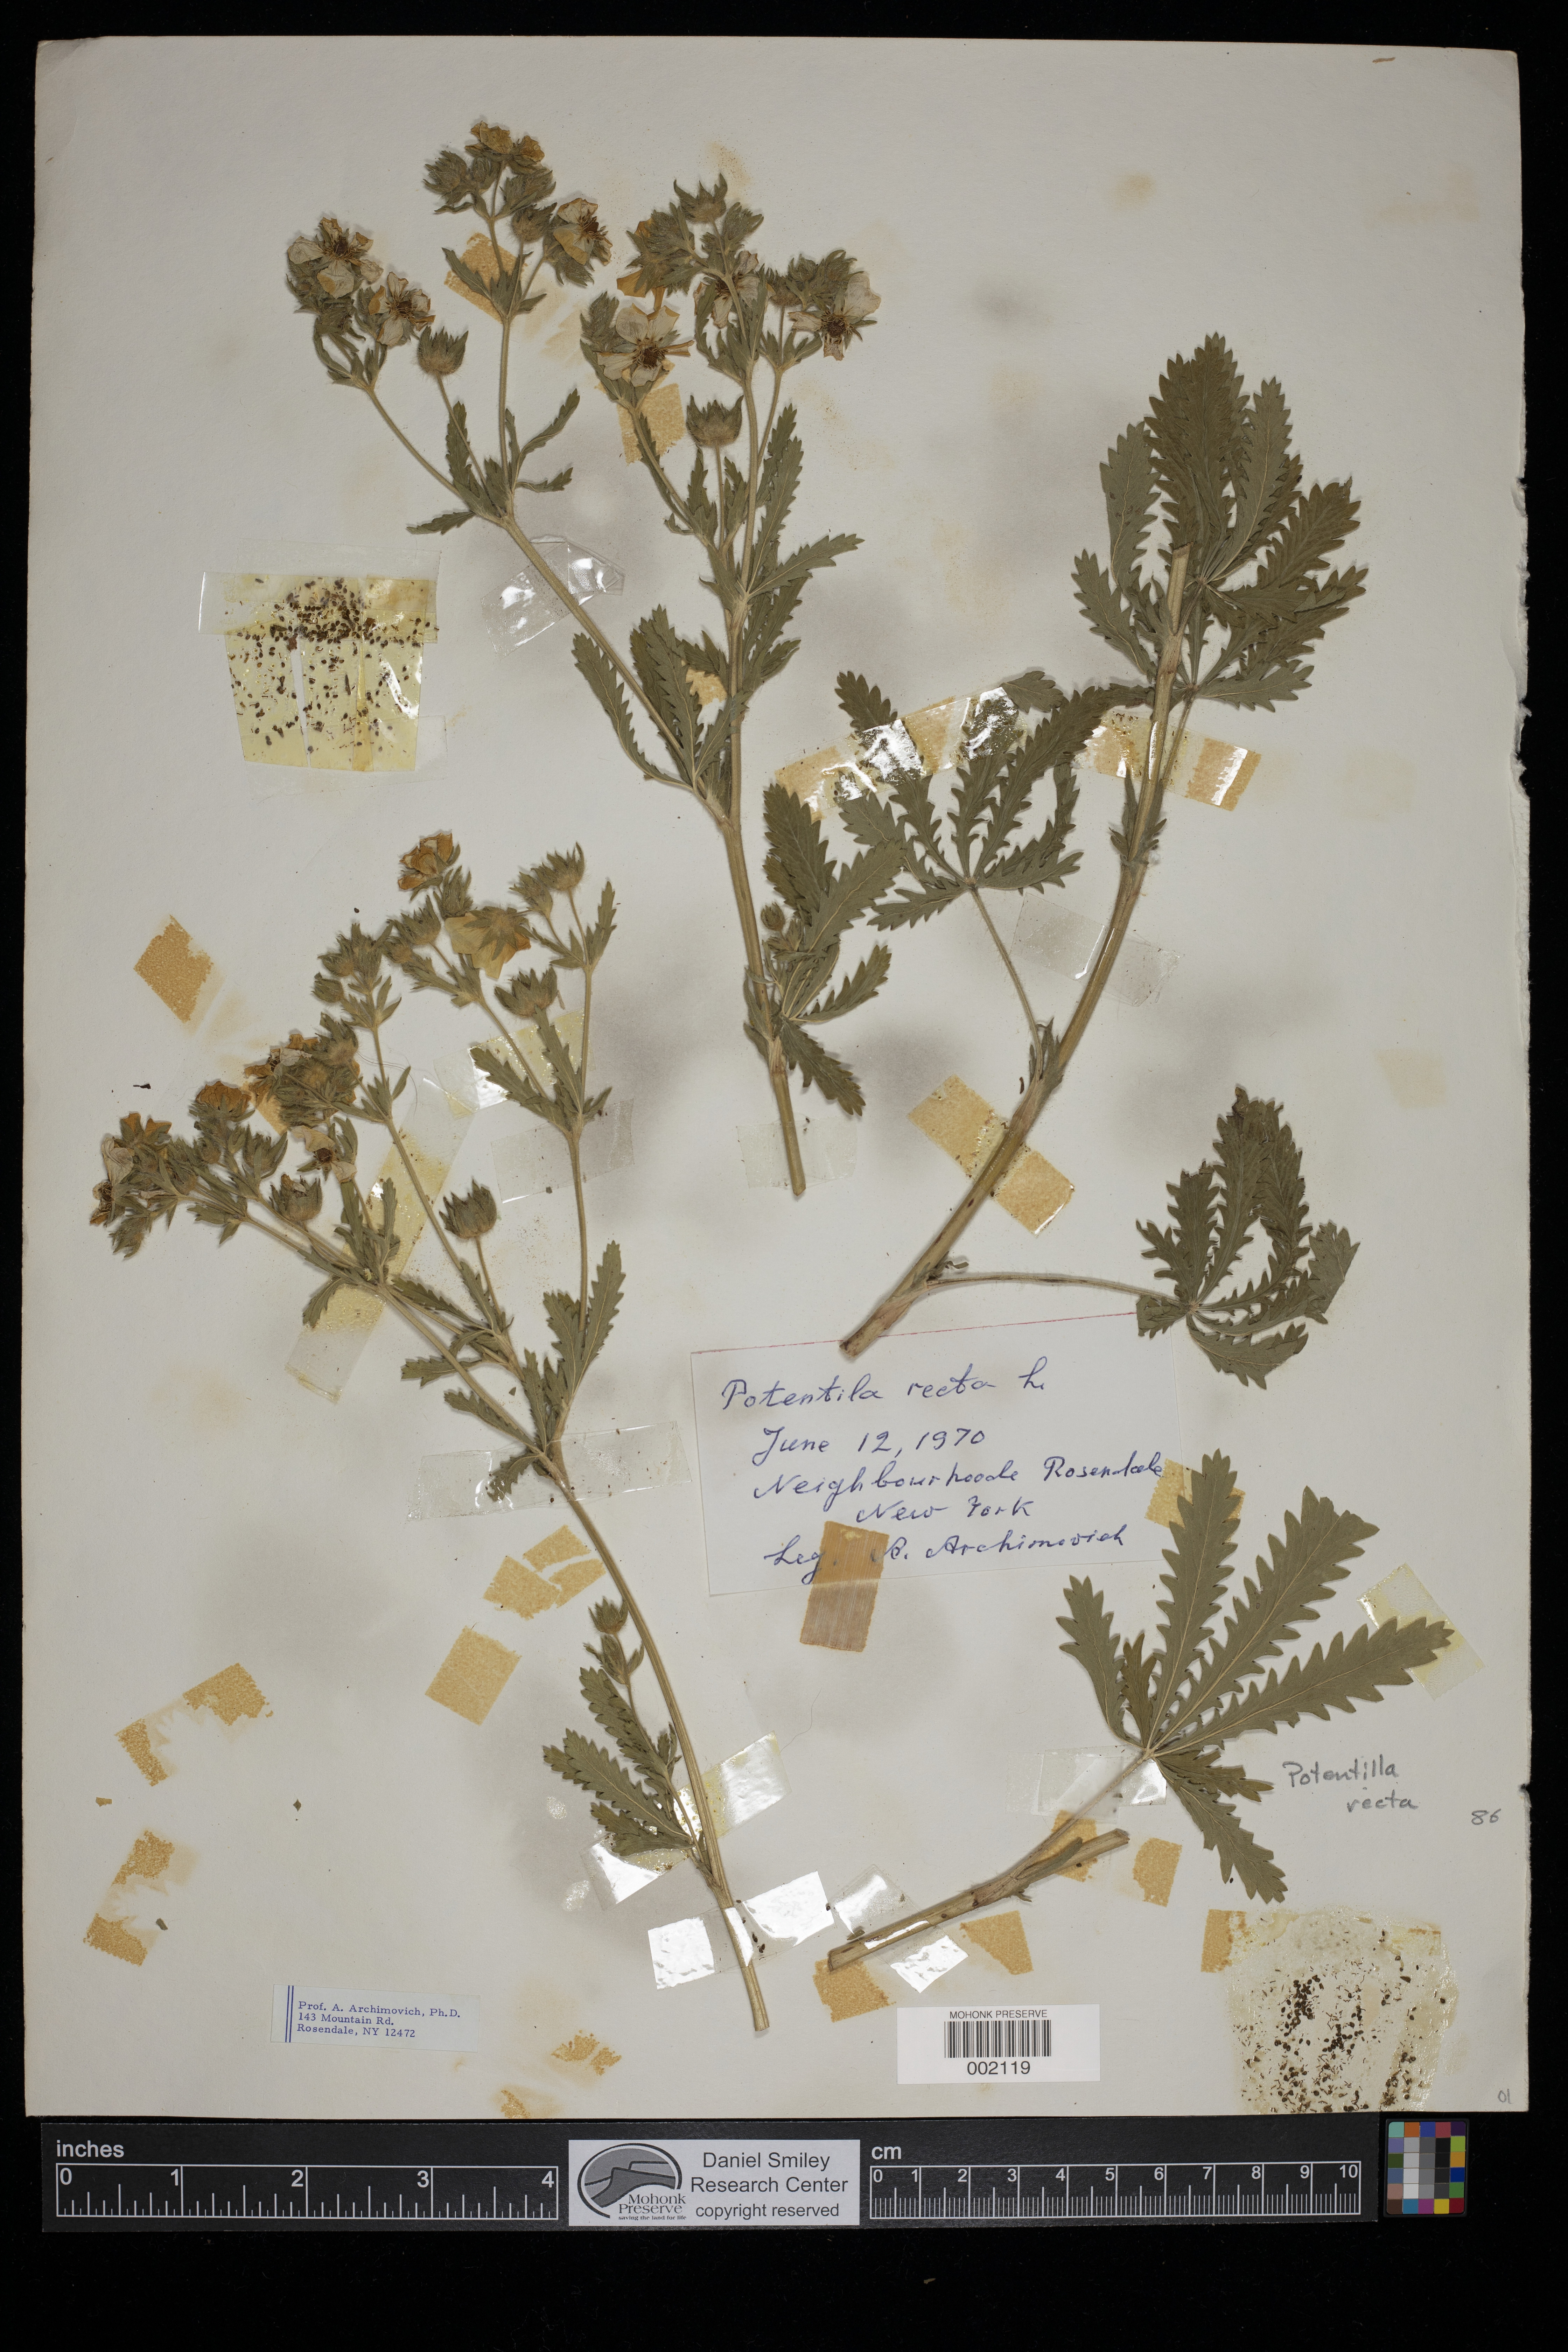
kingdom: Plantae
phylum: Tracheophyta
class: Magnoliopsida
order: Rosales
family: Rosaceae
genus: Potentilla
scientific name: Potentilla recta
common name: Sulphur cinquefoil
